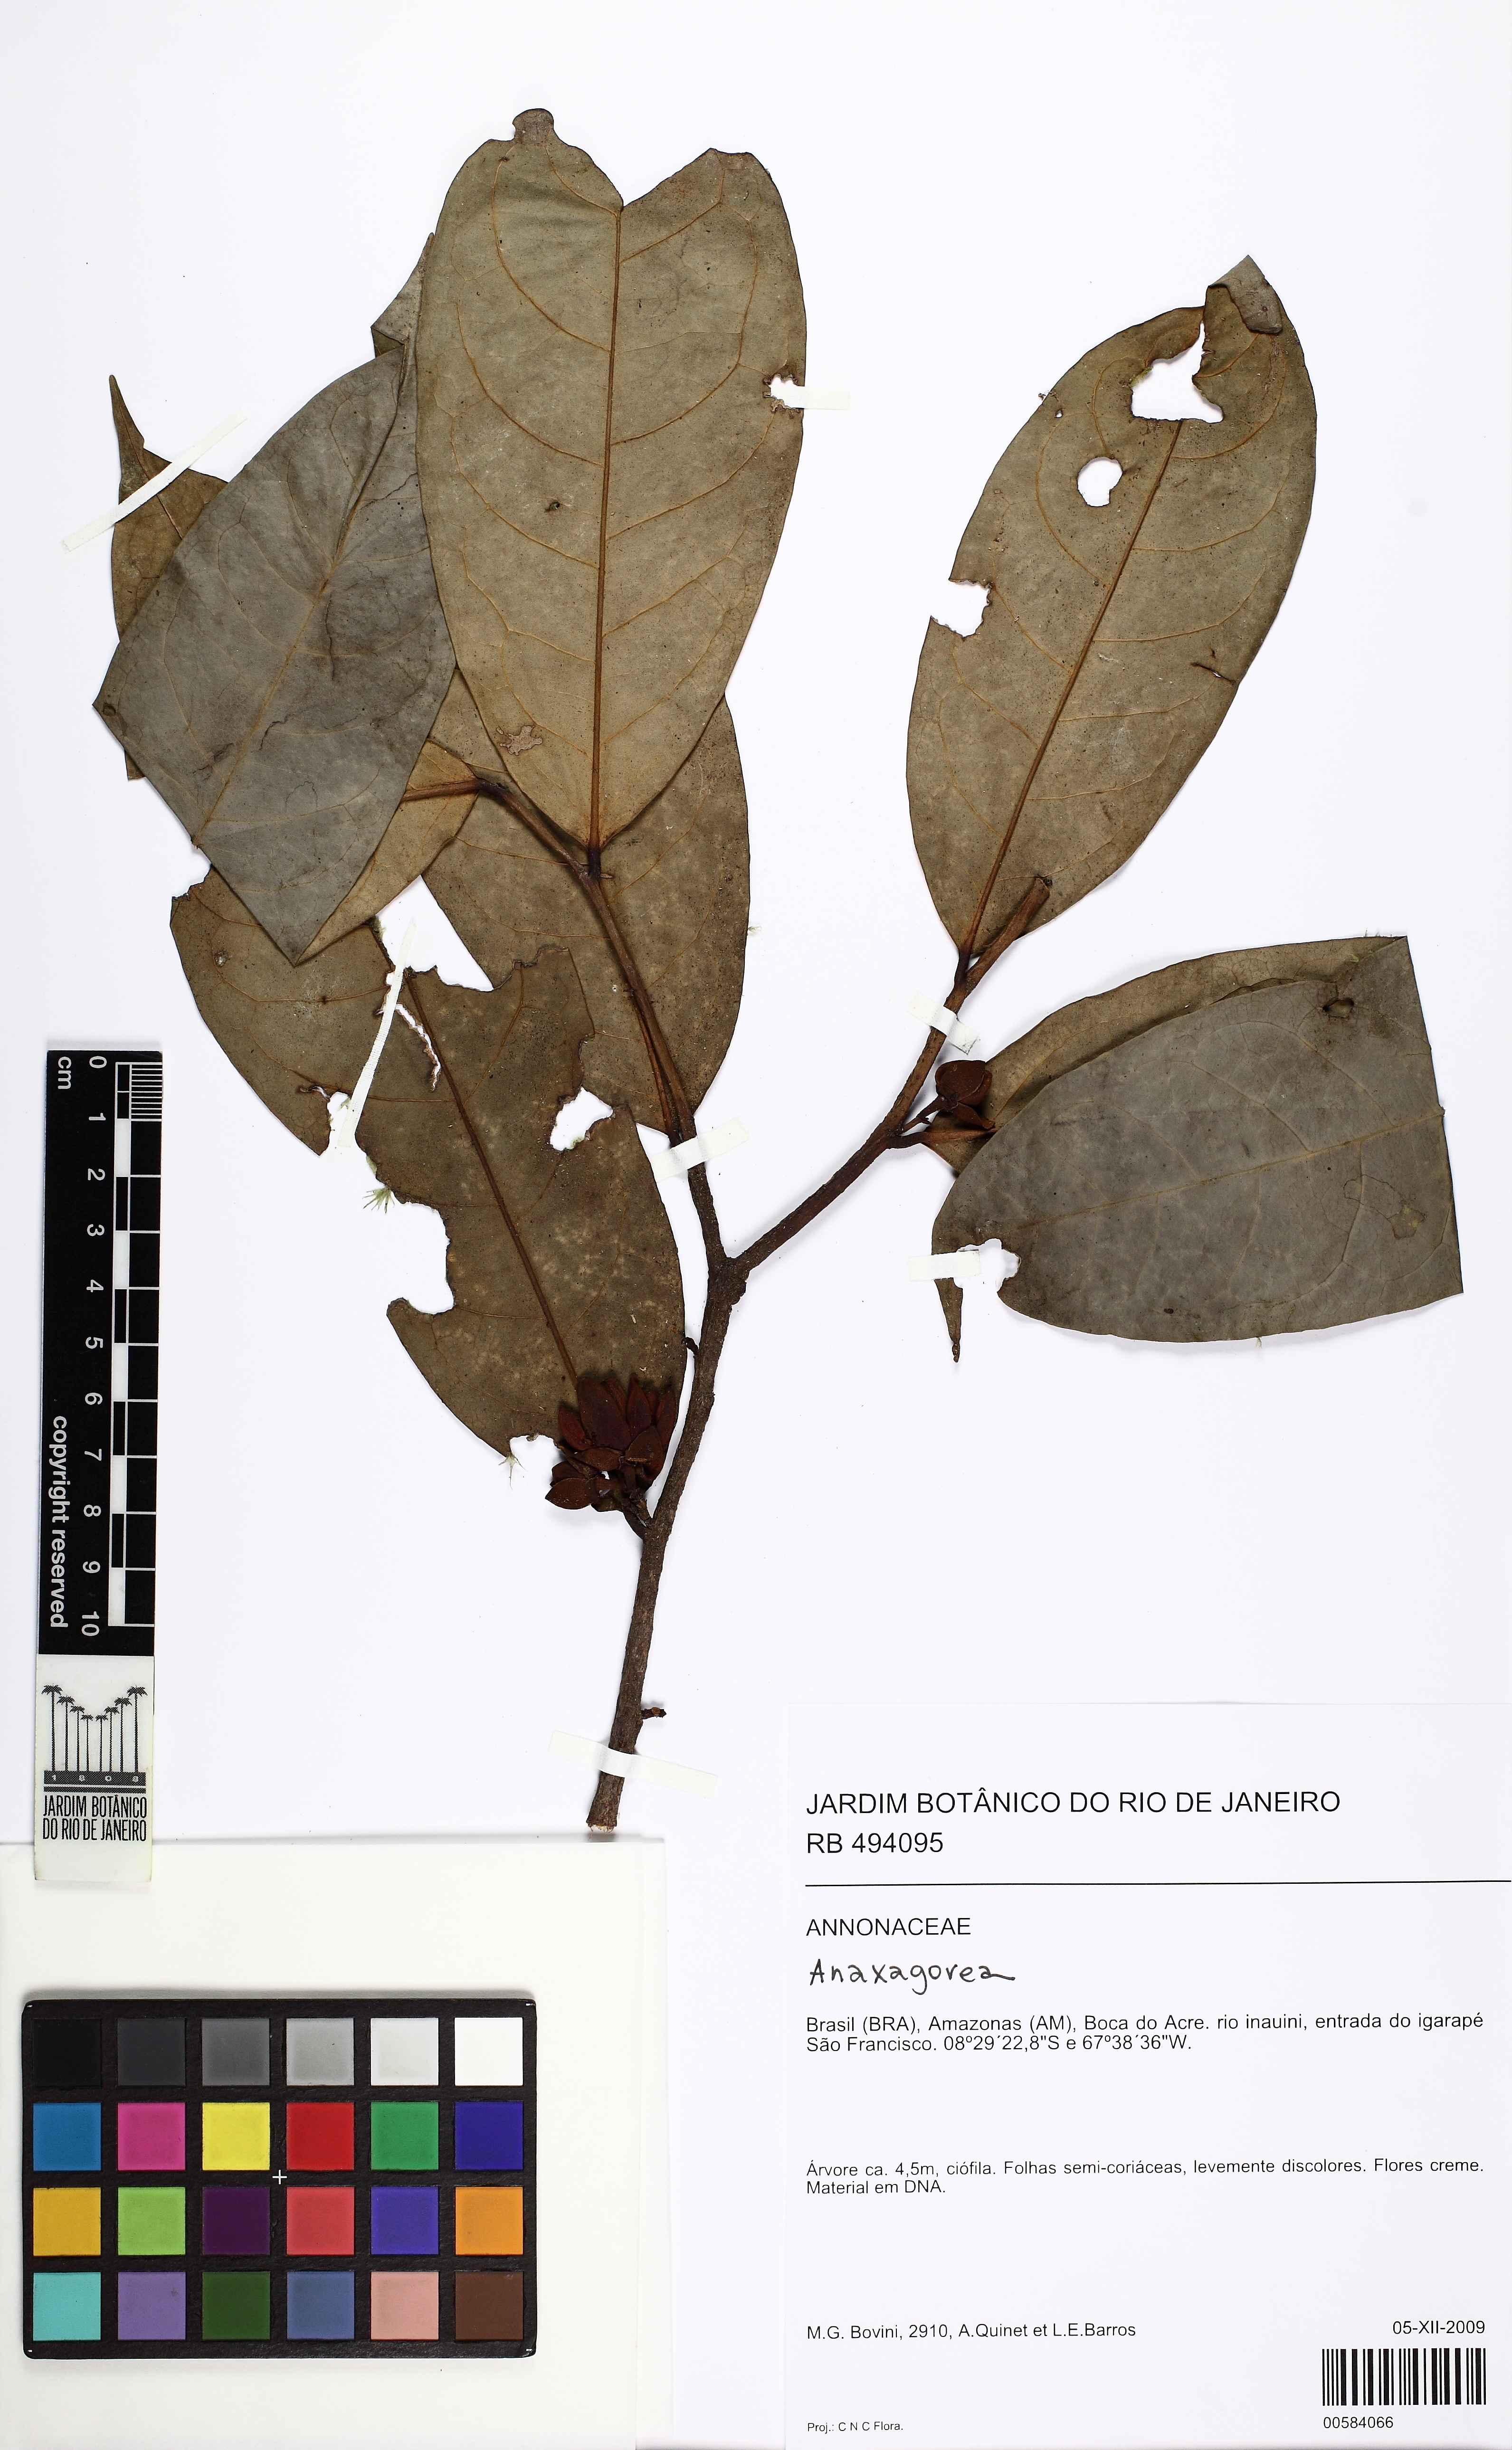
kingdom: Plantae
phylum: Tracheophyta
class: Magnoliopsida
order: Magnoliales
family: Annonaceae
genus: Anaxagorea
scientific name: Anaxagorea
